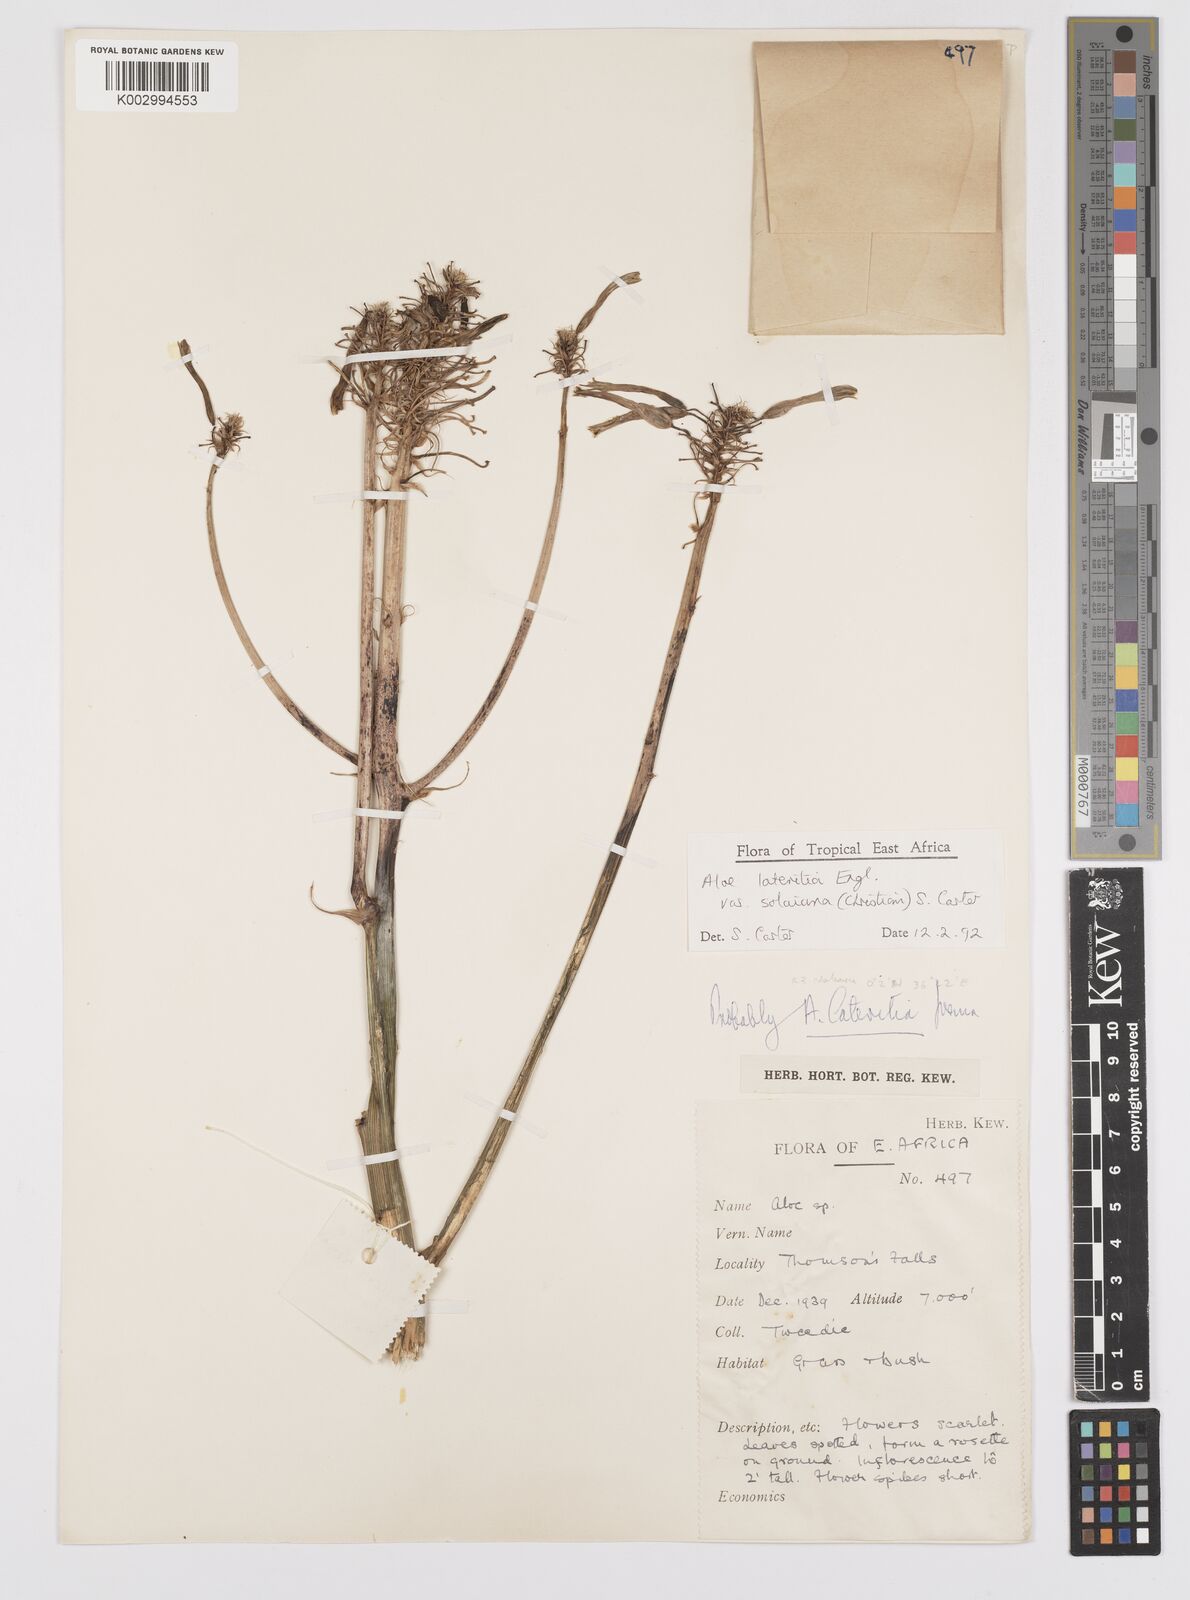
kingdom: Plantae
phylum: Tracheophyta
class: Liliopsida
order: Asparagales
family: Asphodelaceae
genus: Aloe
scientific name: Aloe lateritia
